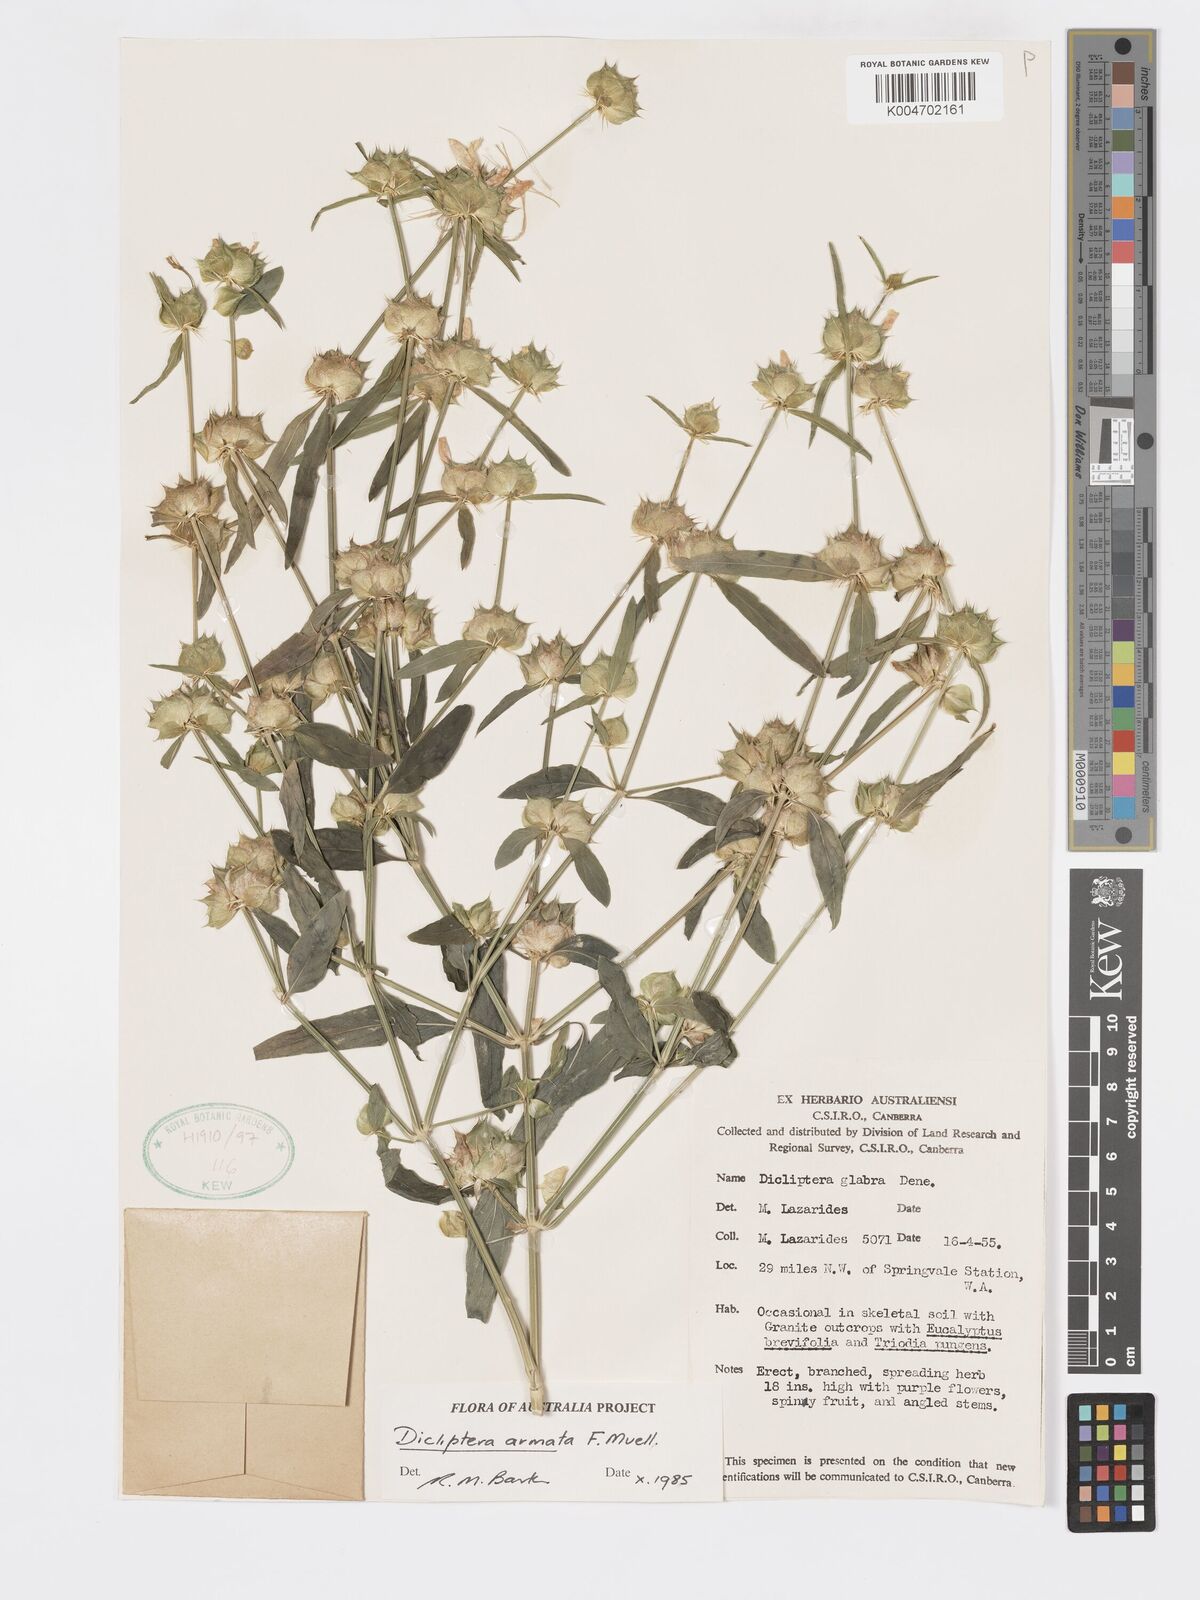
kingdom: Plantae
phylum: Tracheophyta
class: Magnoliopsida
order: Lamiales
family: Acanthaceae
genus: Dicliptera
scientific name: Dicliptera armata
